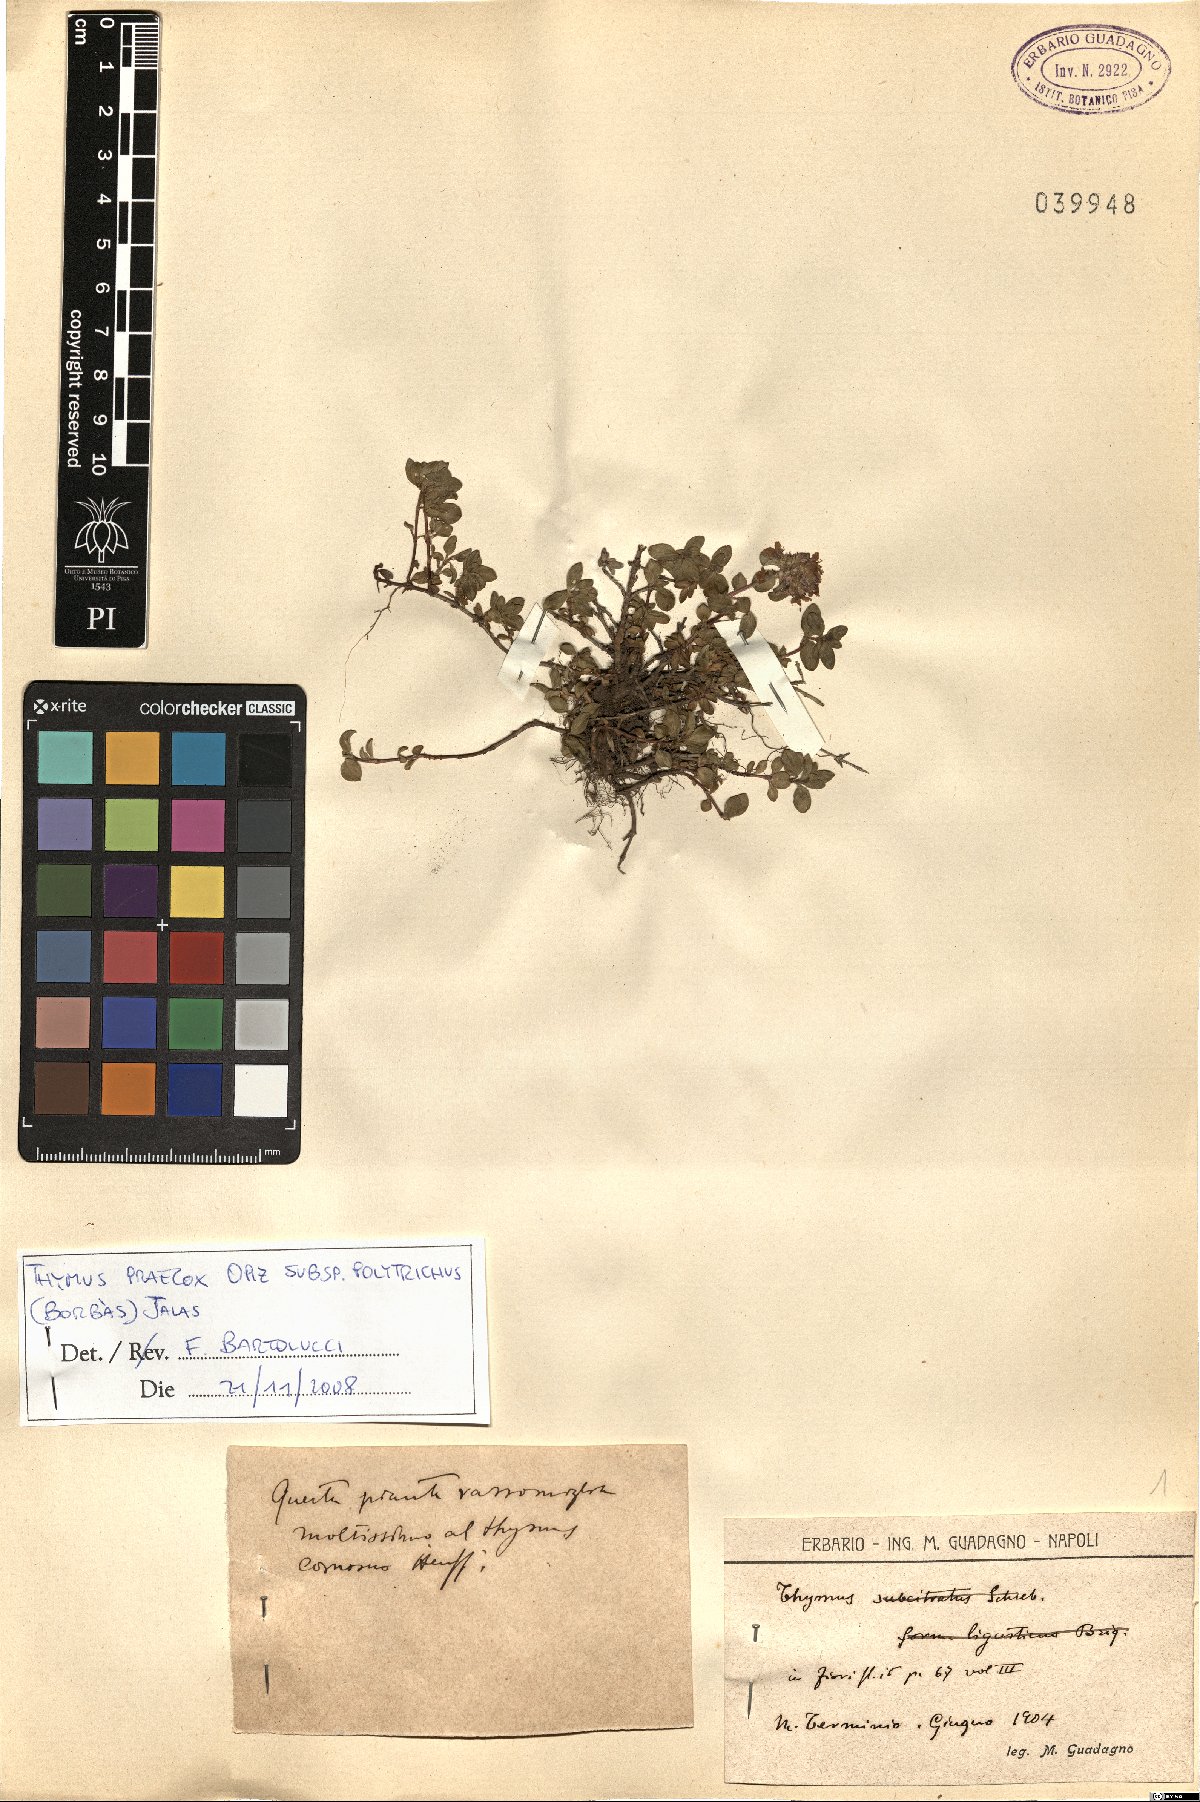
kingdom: Plantae
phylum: Tracheophyta
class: Magnoliopsida
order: Lamiales
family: Lamiaceae
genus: Thymus
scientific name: Thymus praecox
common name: Wild thyme
